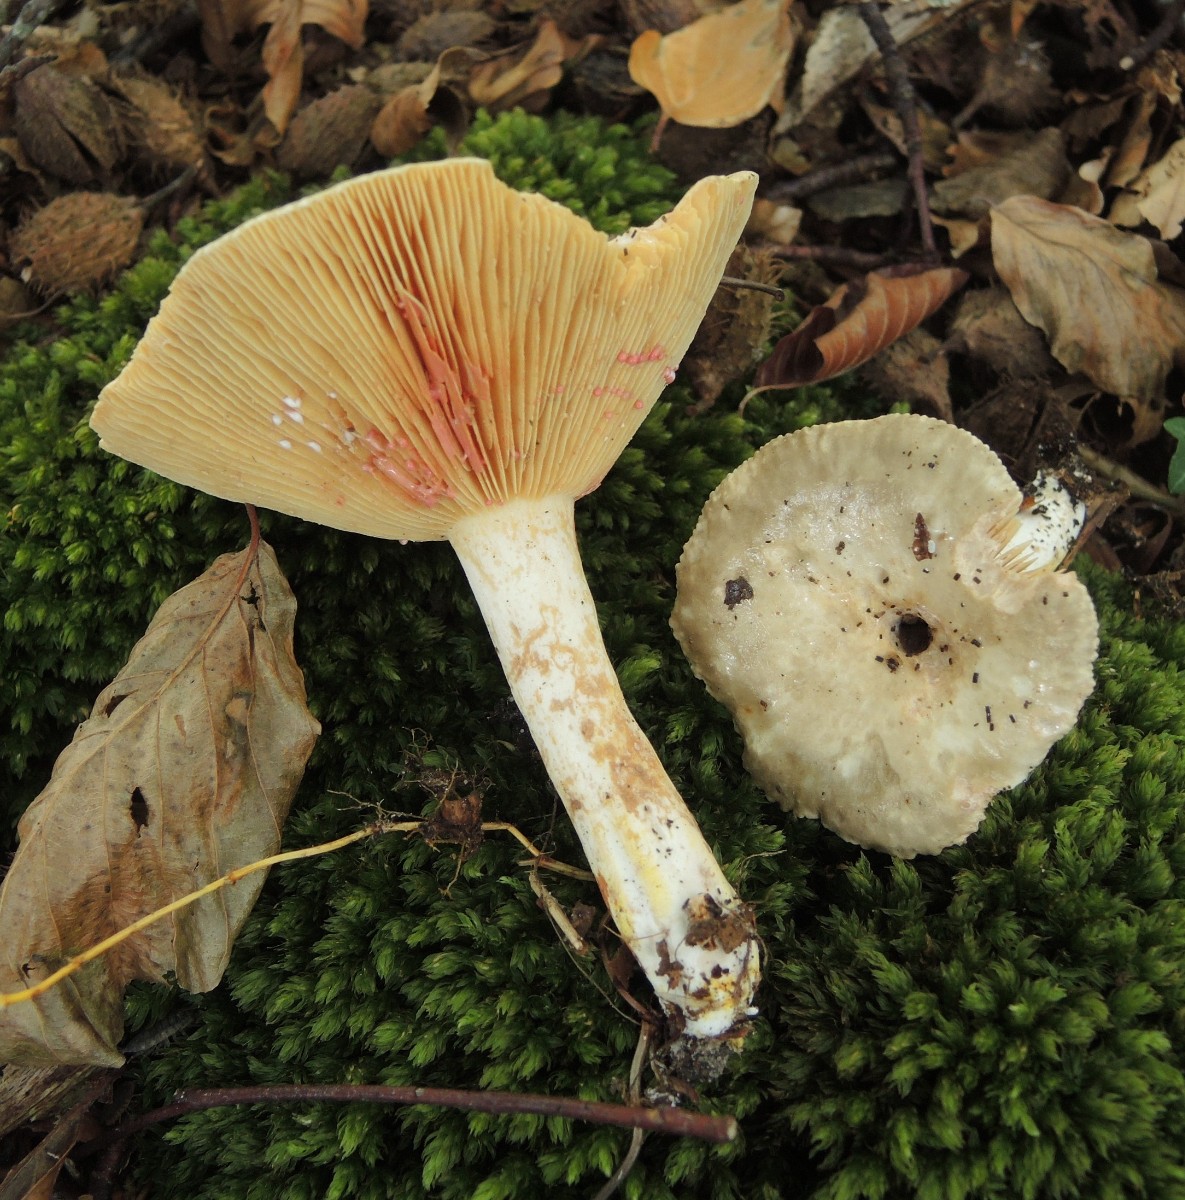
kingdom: Fungi
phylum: Basidiomycota
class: Agaricomycetes
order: Russulales
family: Russulaceae
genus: Lactarius
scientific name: Lactarius acris
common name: rosamælket mælkehat
